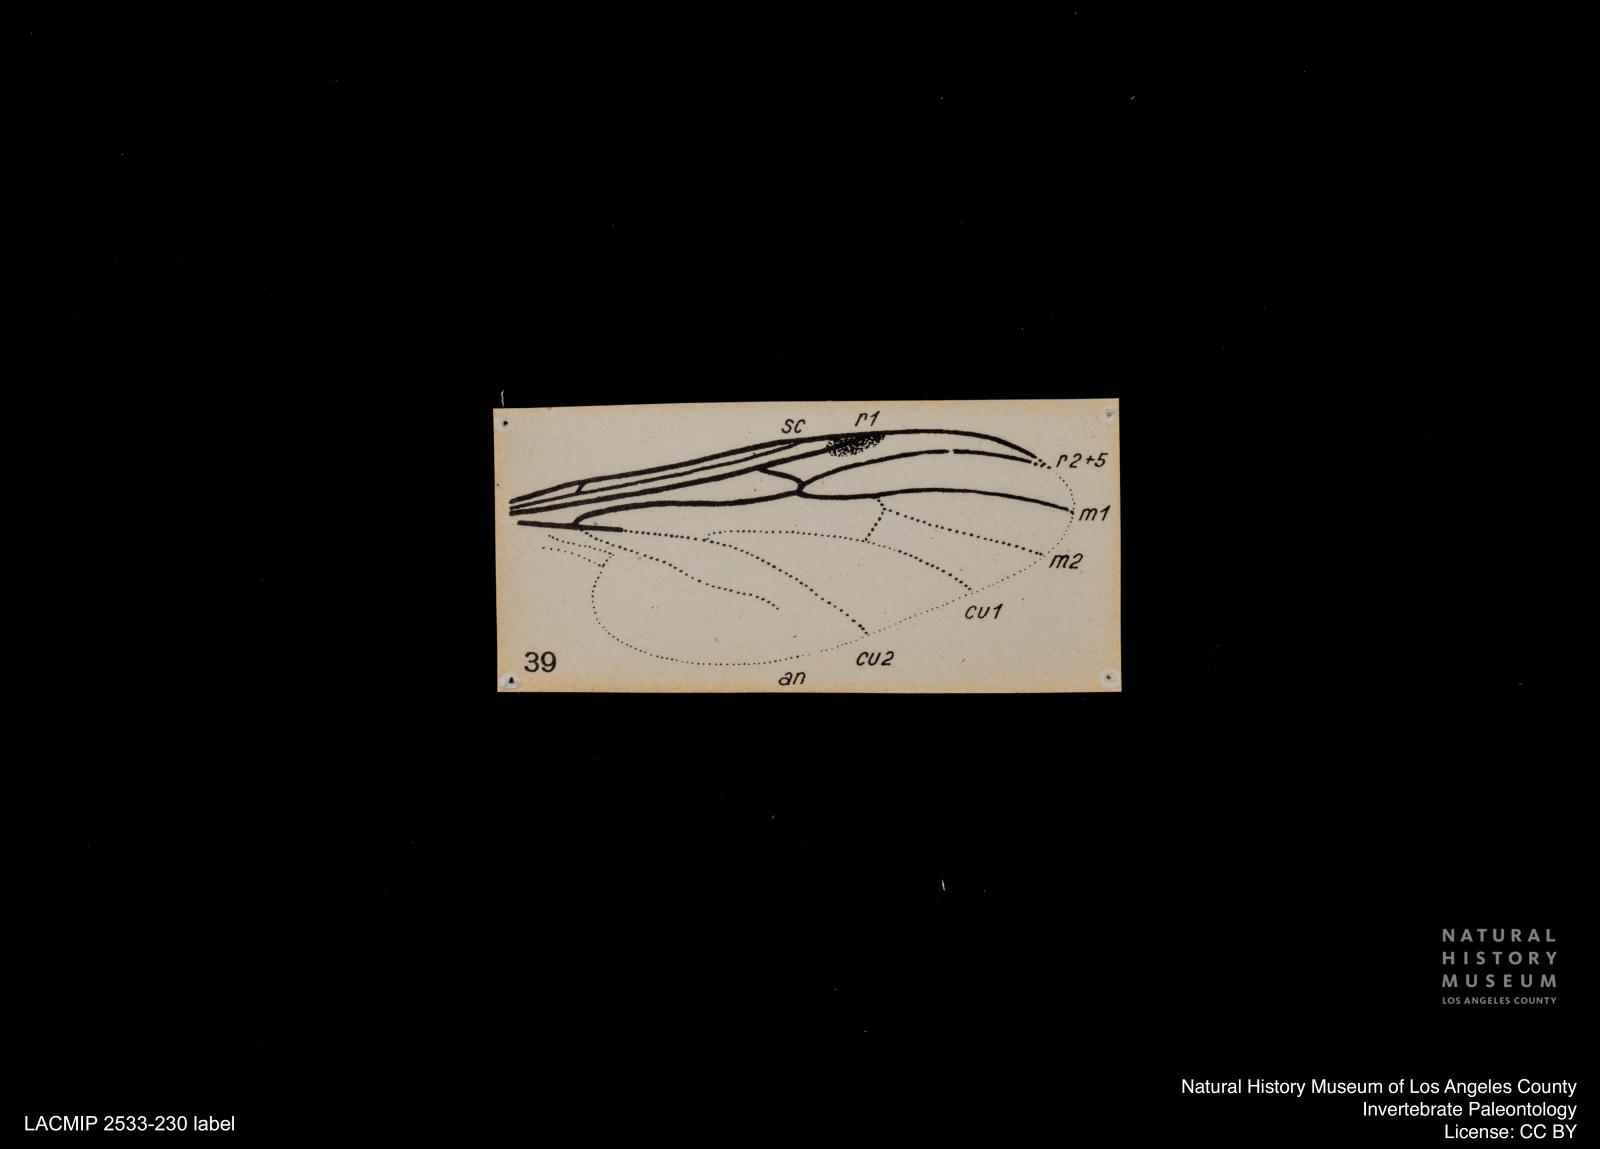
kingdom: Animalia
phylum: Arthropoda
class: Insecta
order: Diptera
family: Bibionidae
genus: Bibio
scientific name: Bibio
